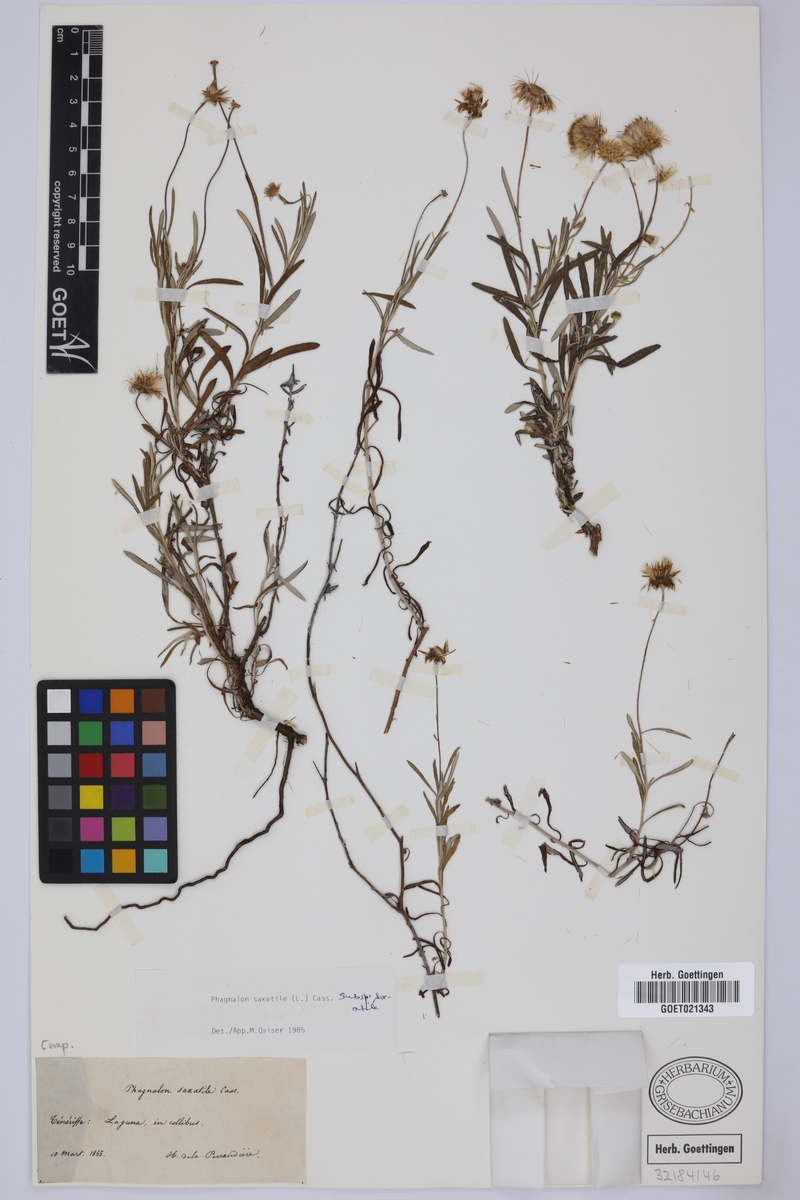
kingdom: Plantae
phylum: Tracheophyta
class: Magnoliopsida
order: Asterales
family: Asteraceae
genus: Phagnalon
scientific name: Phagnalon saxatile
